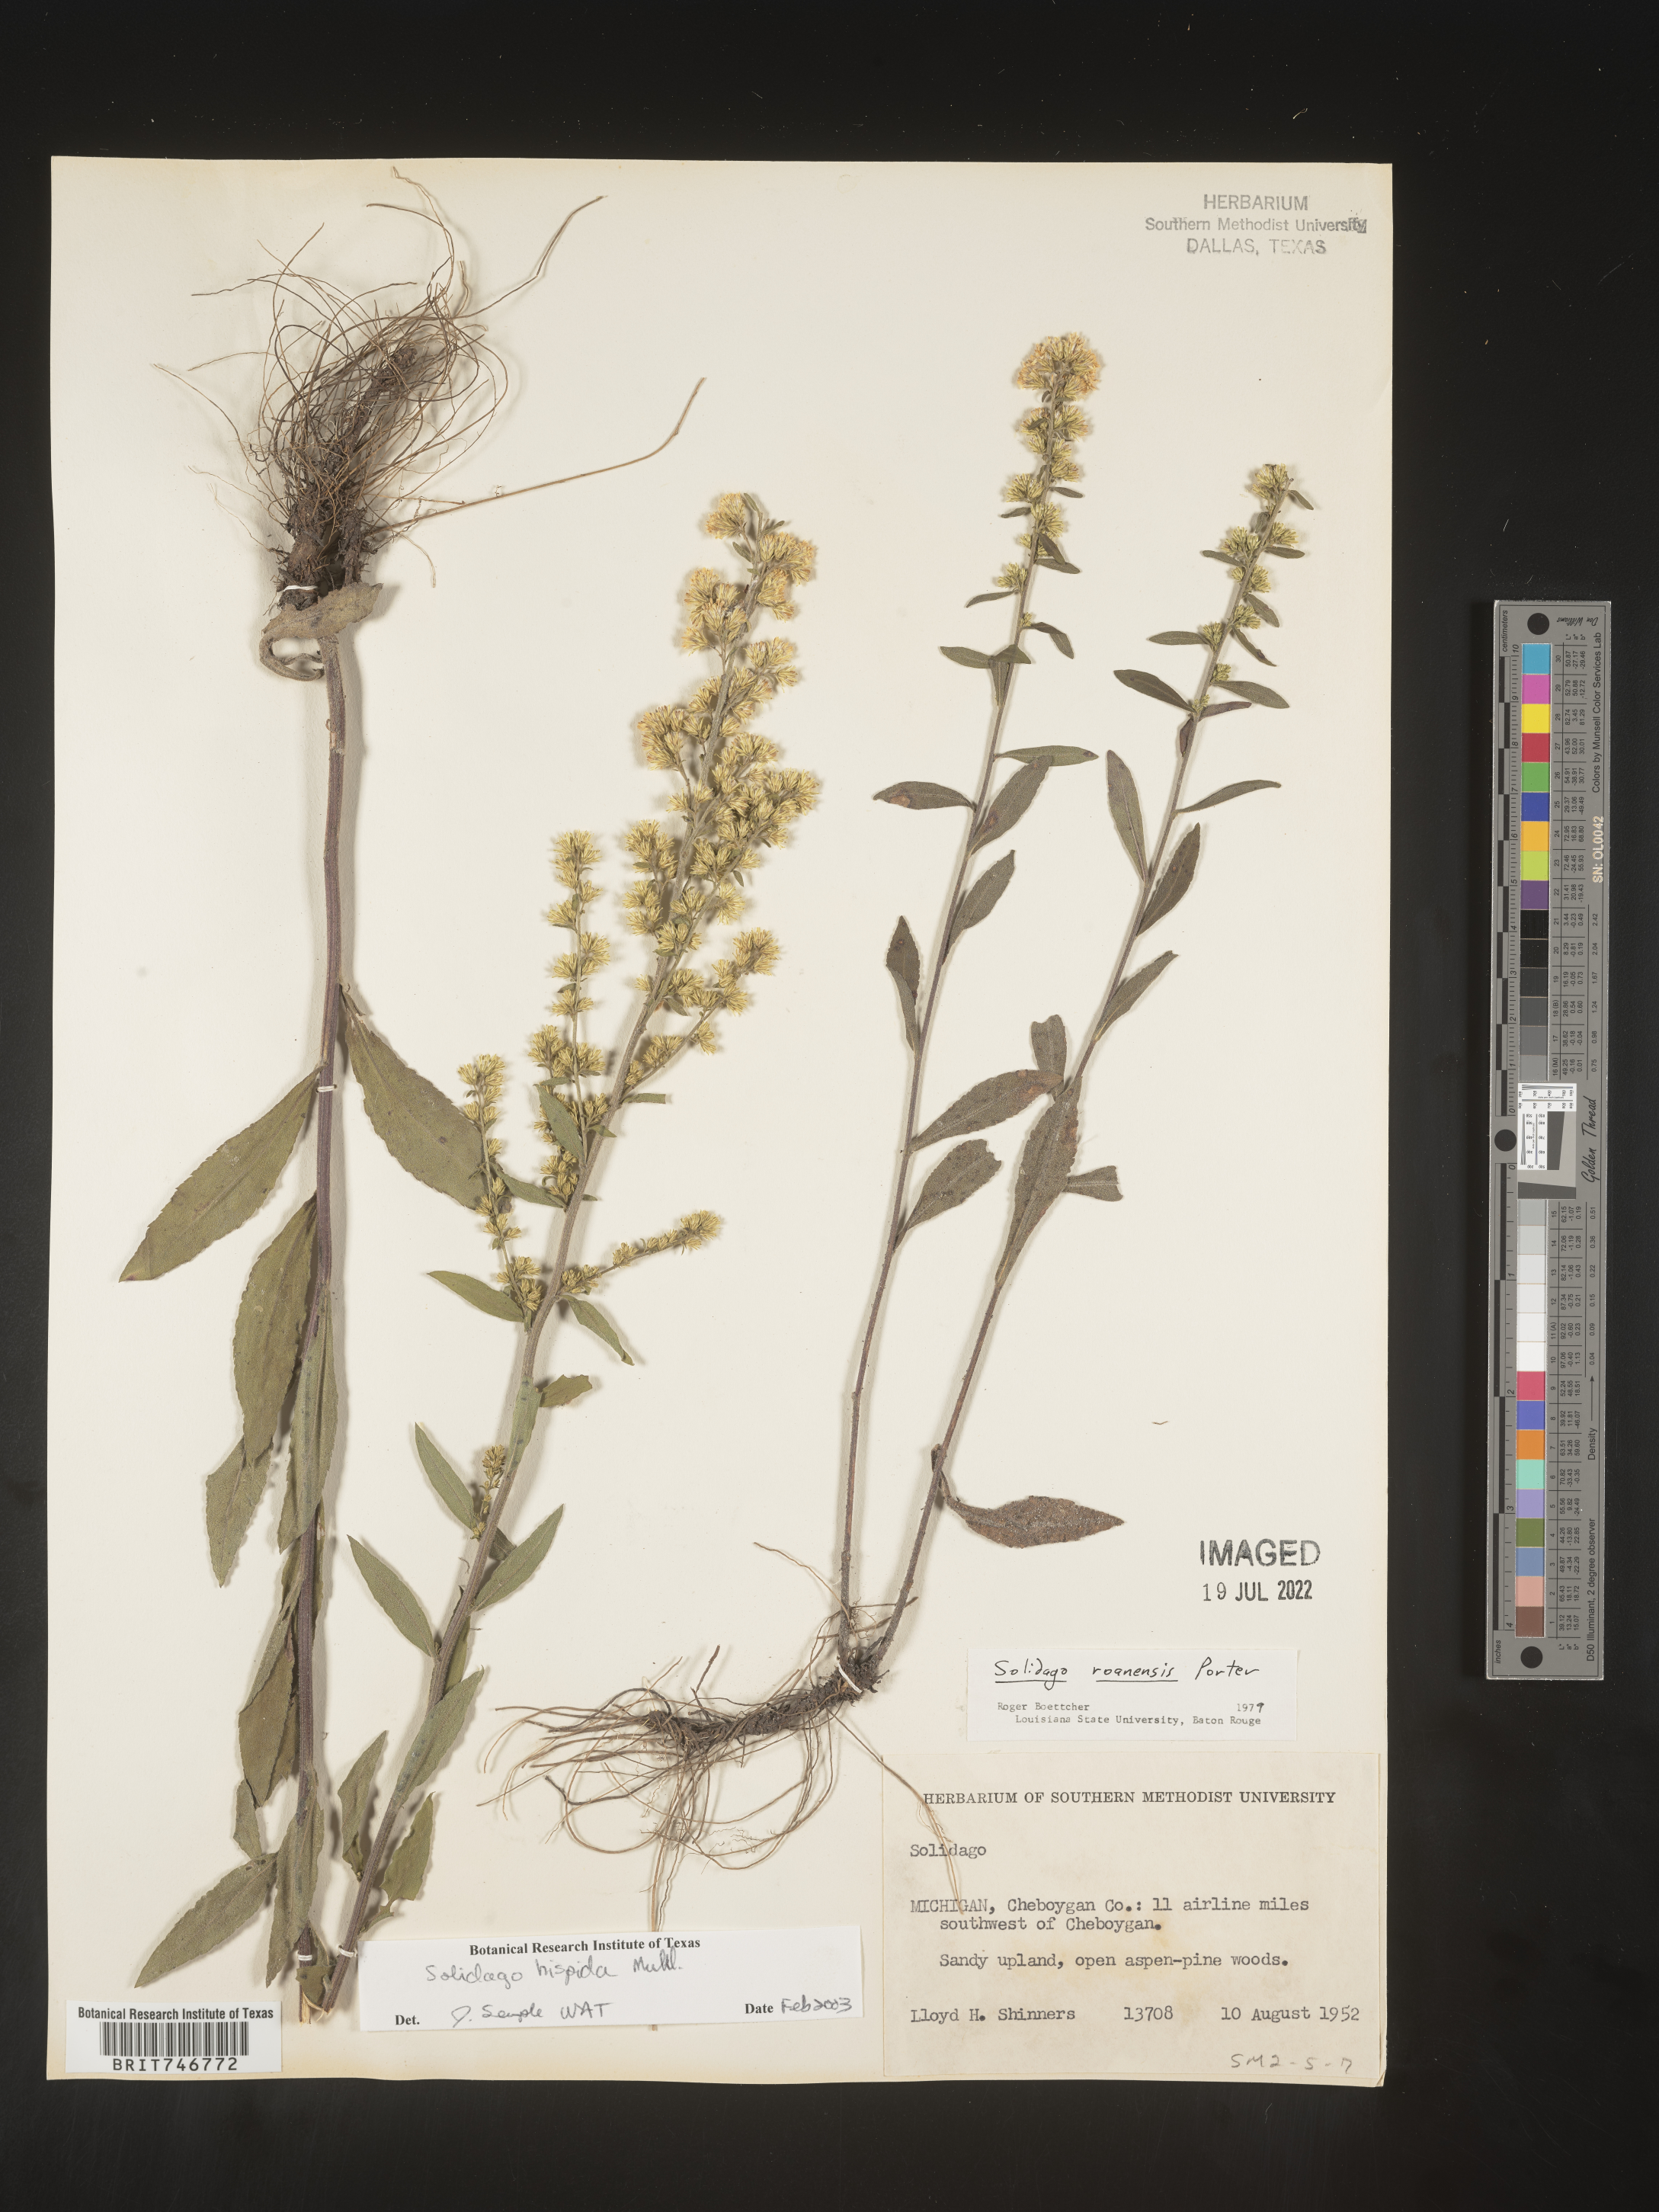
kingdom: Plantae
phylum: Tracheophyta
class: Magnoliopsida
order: Asterales
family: Asteraceae
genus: Solidago
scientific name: Solidago hispida
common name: Hairy goldenrod
